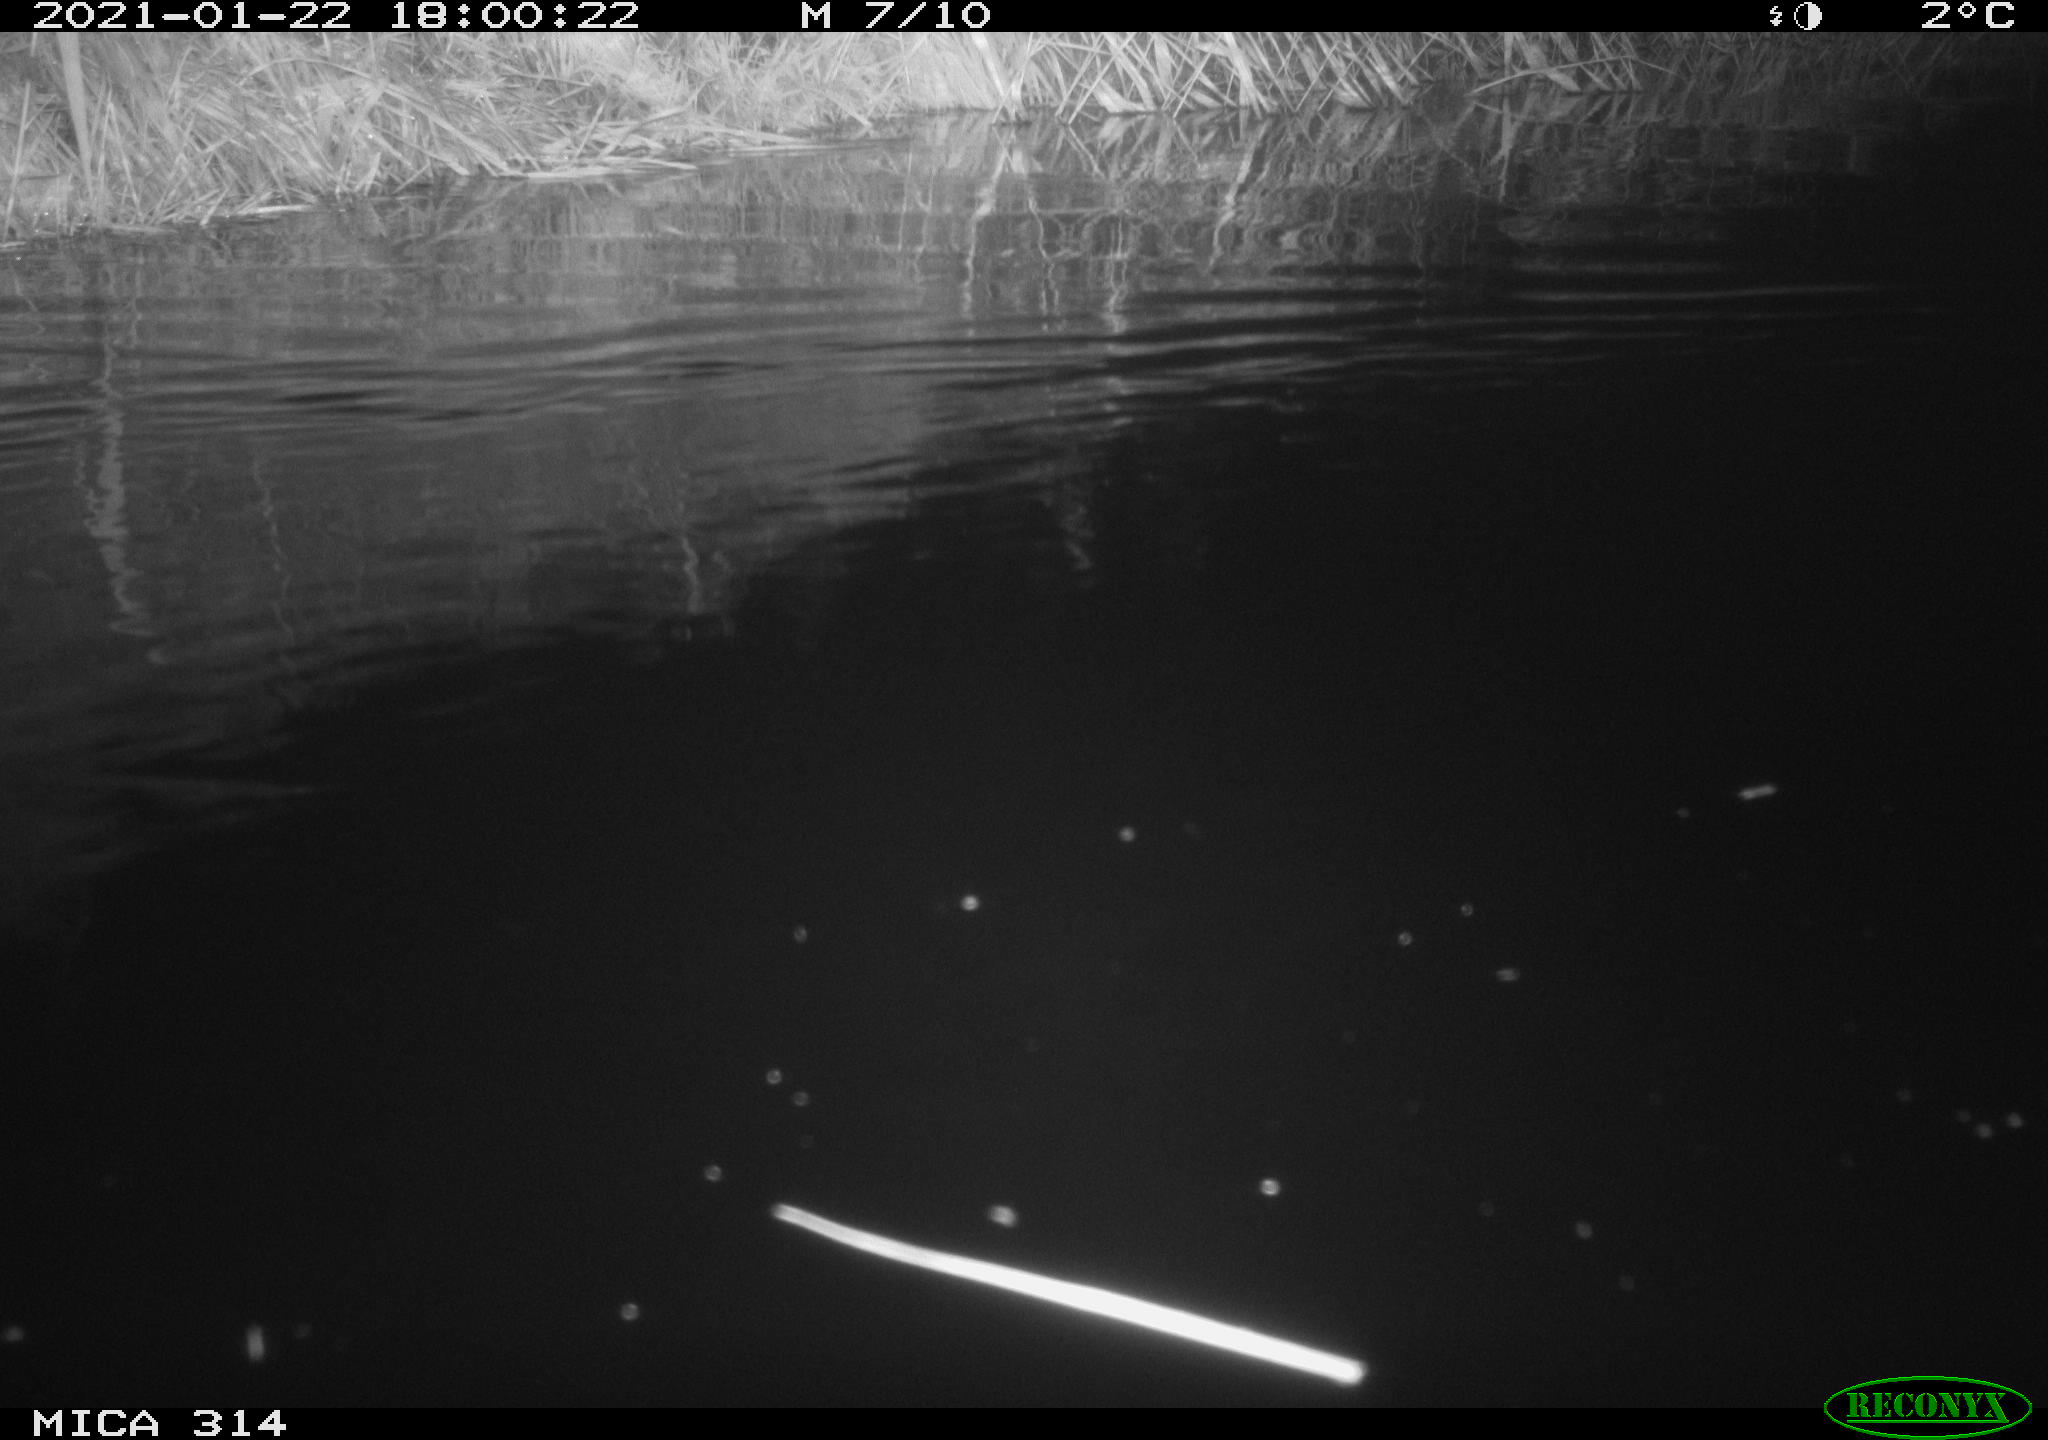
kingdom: Animalia
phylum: Chordata
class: Mammalia
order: Rodentia
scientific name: Rodentia
